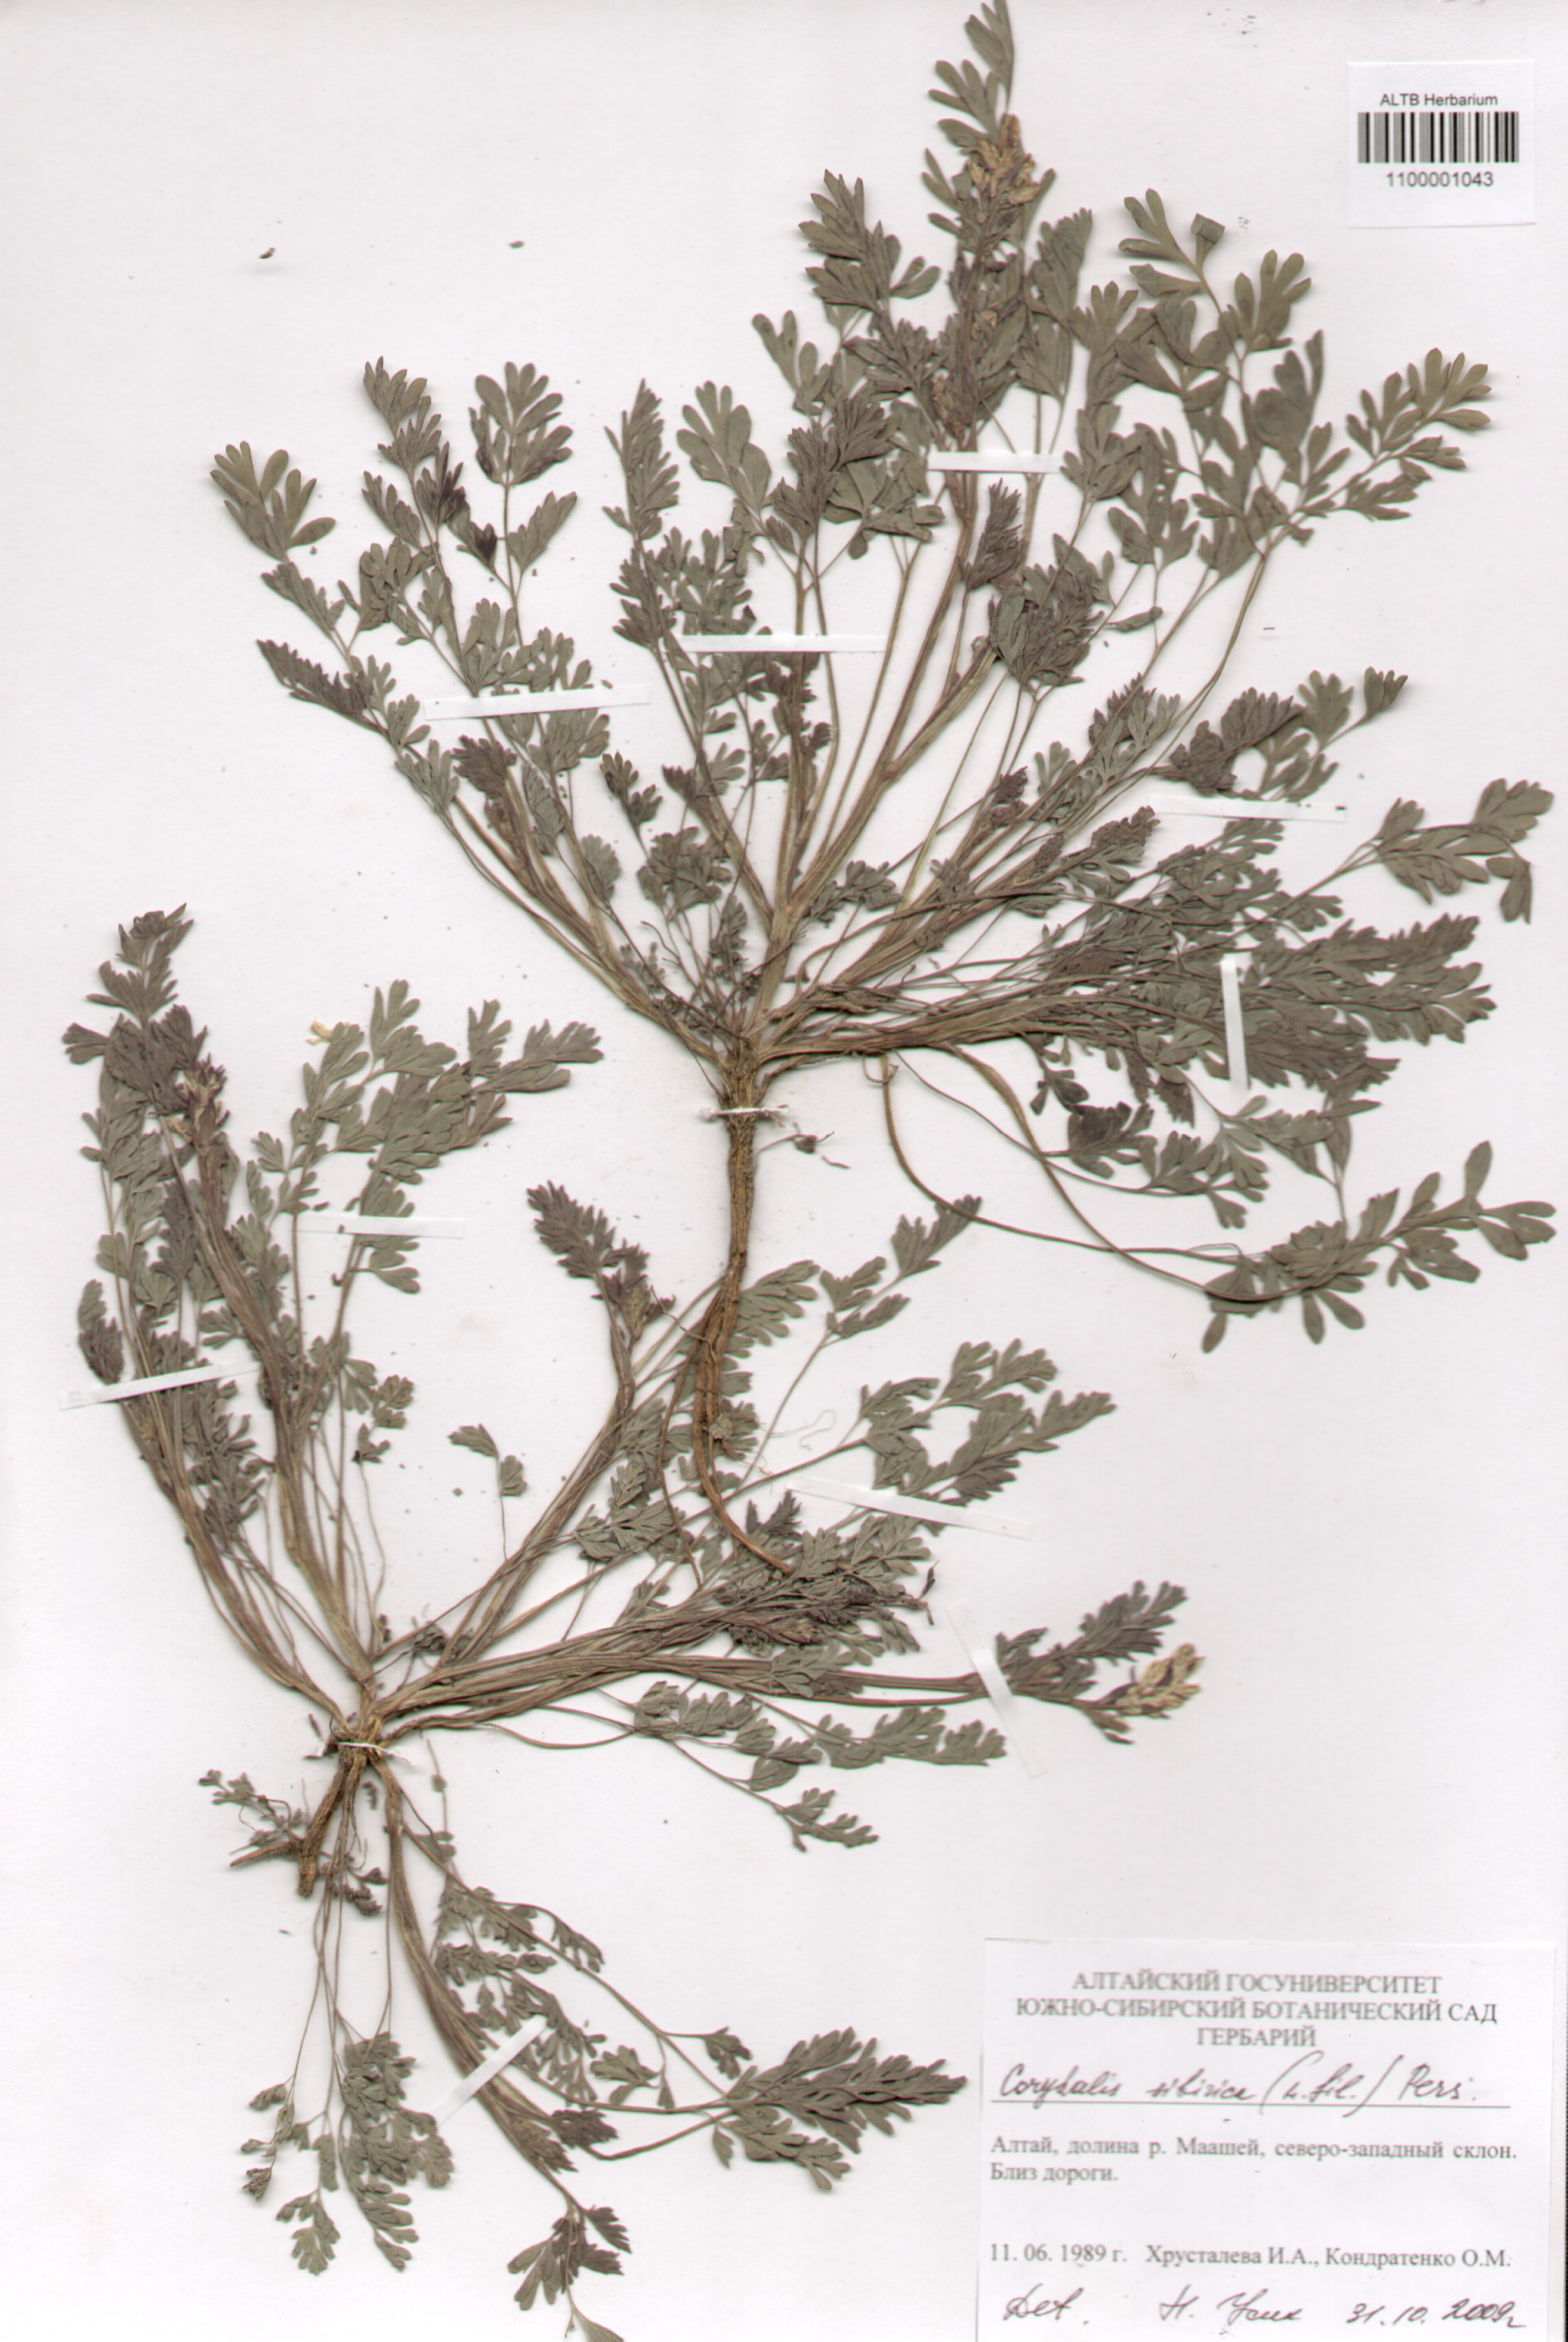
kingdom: Plantae
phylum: Tracheophyta
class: Magnoliopsida
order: Ranunculales
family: Papaveraceae
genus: Corydalis
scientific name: Corydalis sibirica
